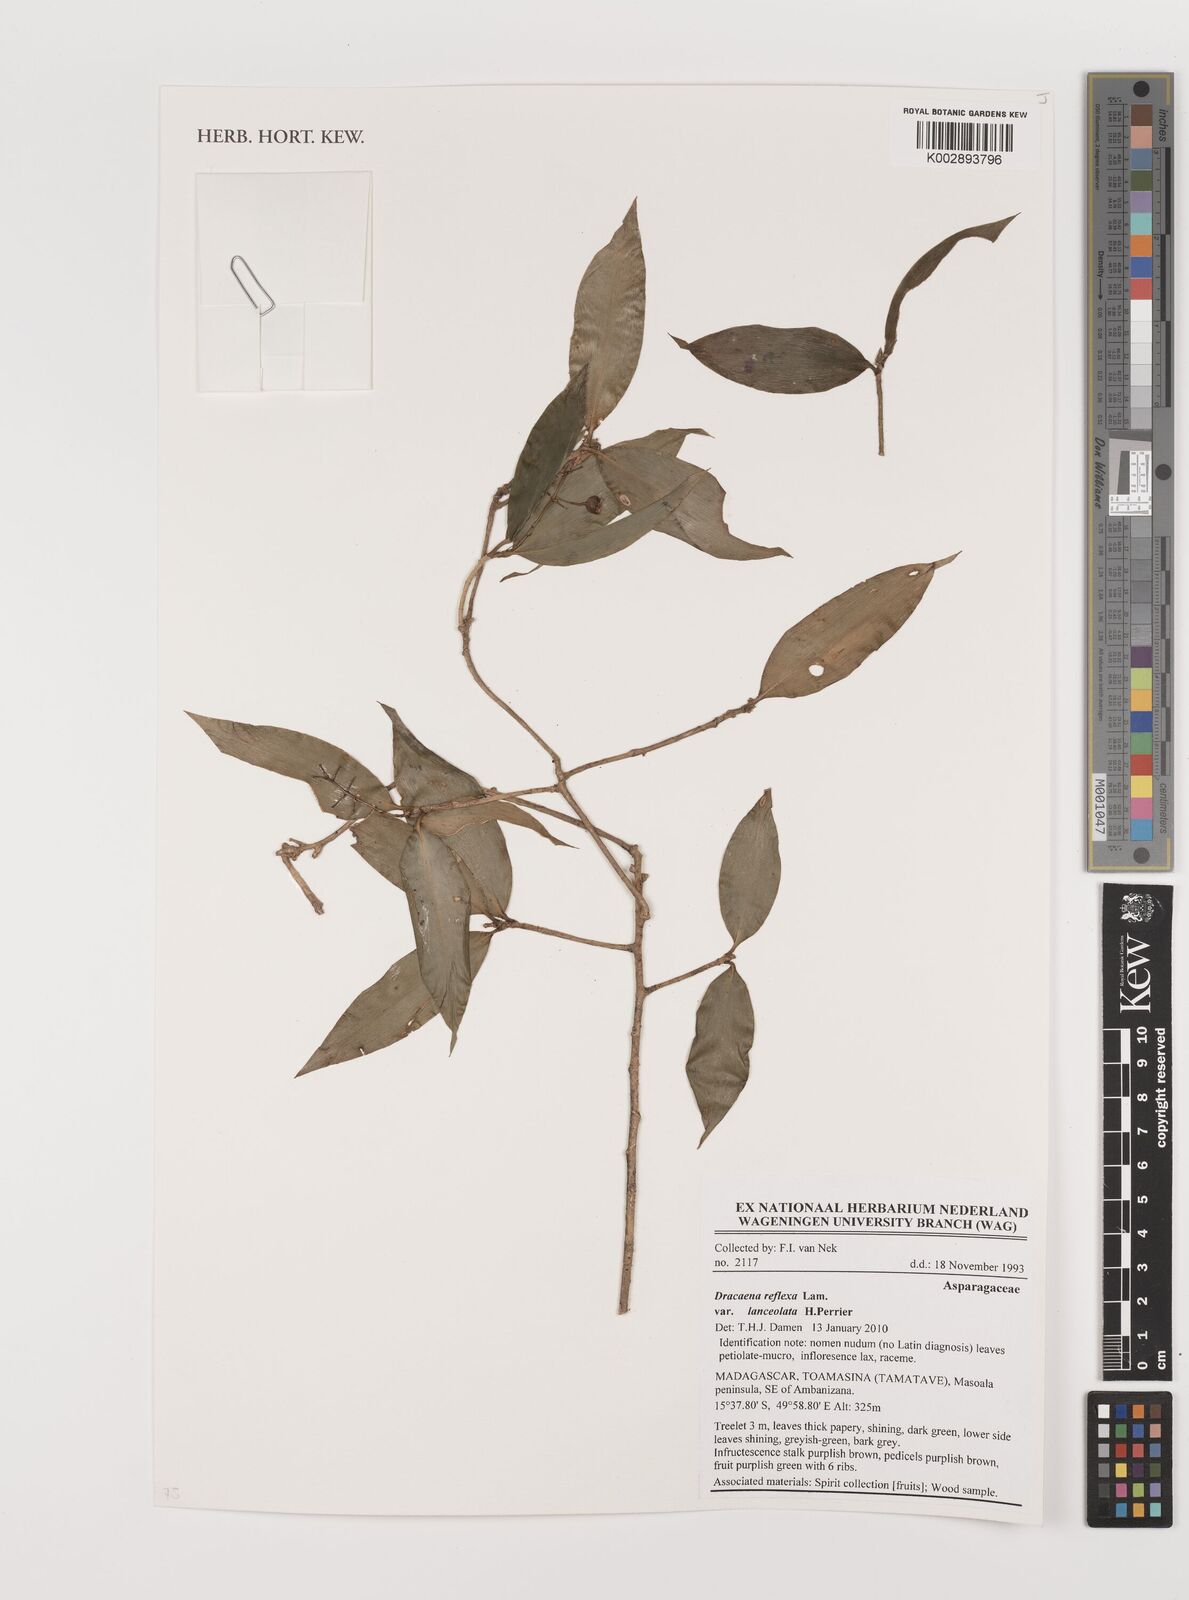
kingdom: Plantae
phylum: Tracheophyta
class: Liliopsida
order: Asparagales
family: Asparagaceae
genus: Dracaena
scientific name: Dracaena reflexa
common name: Song-of-india
